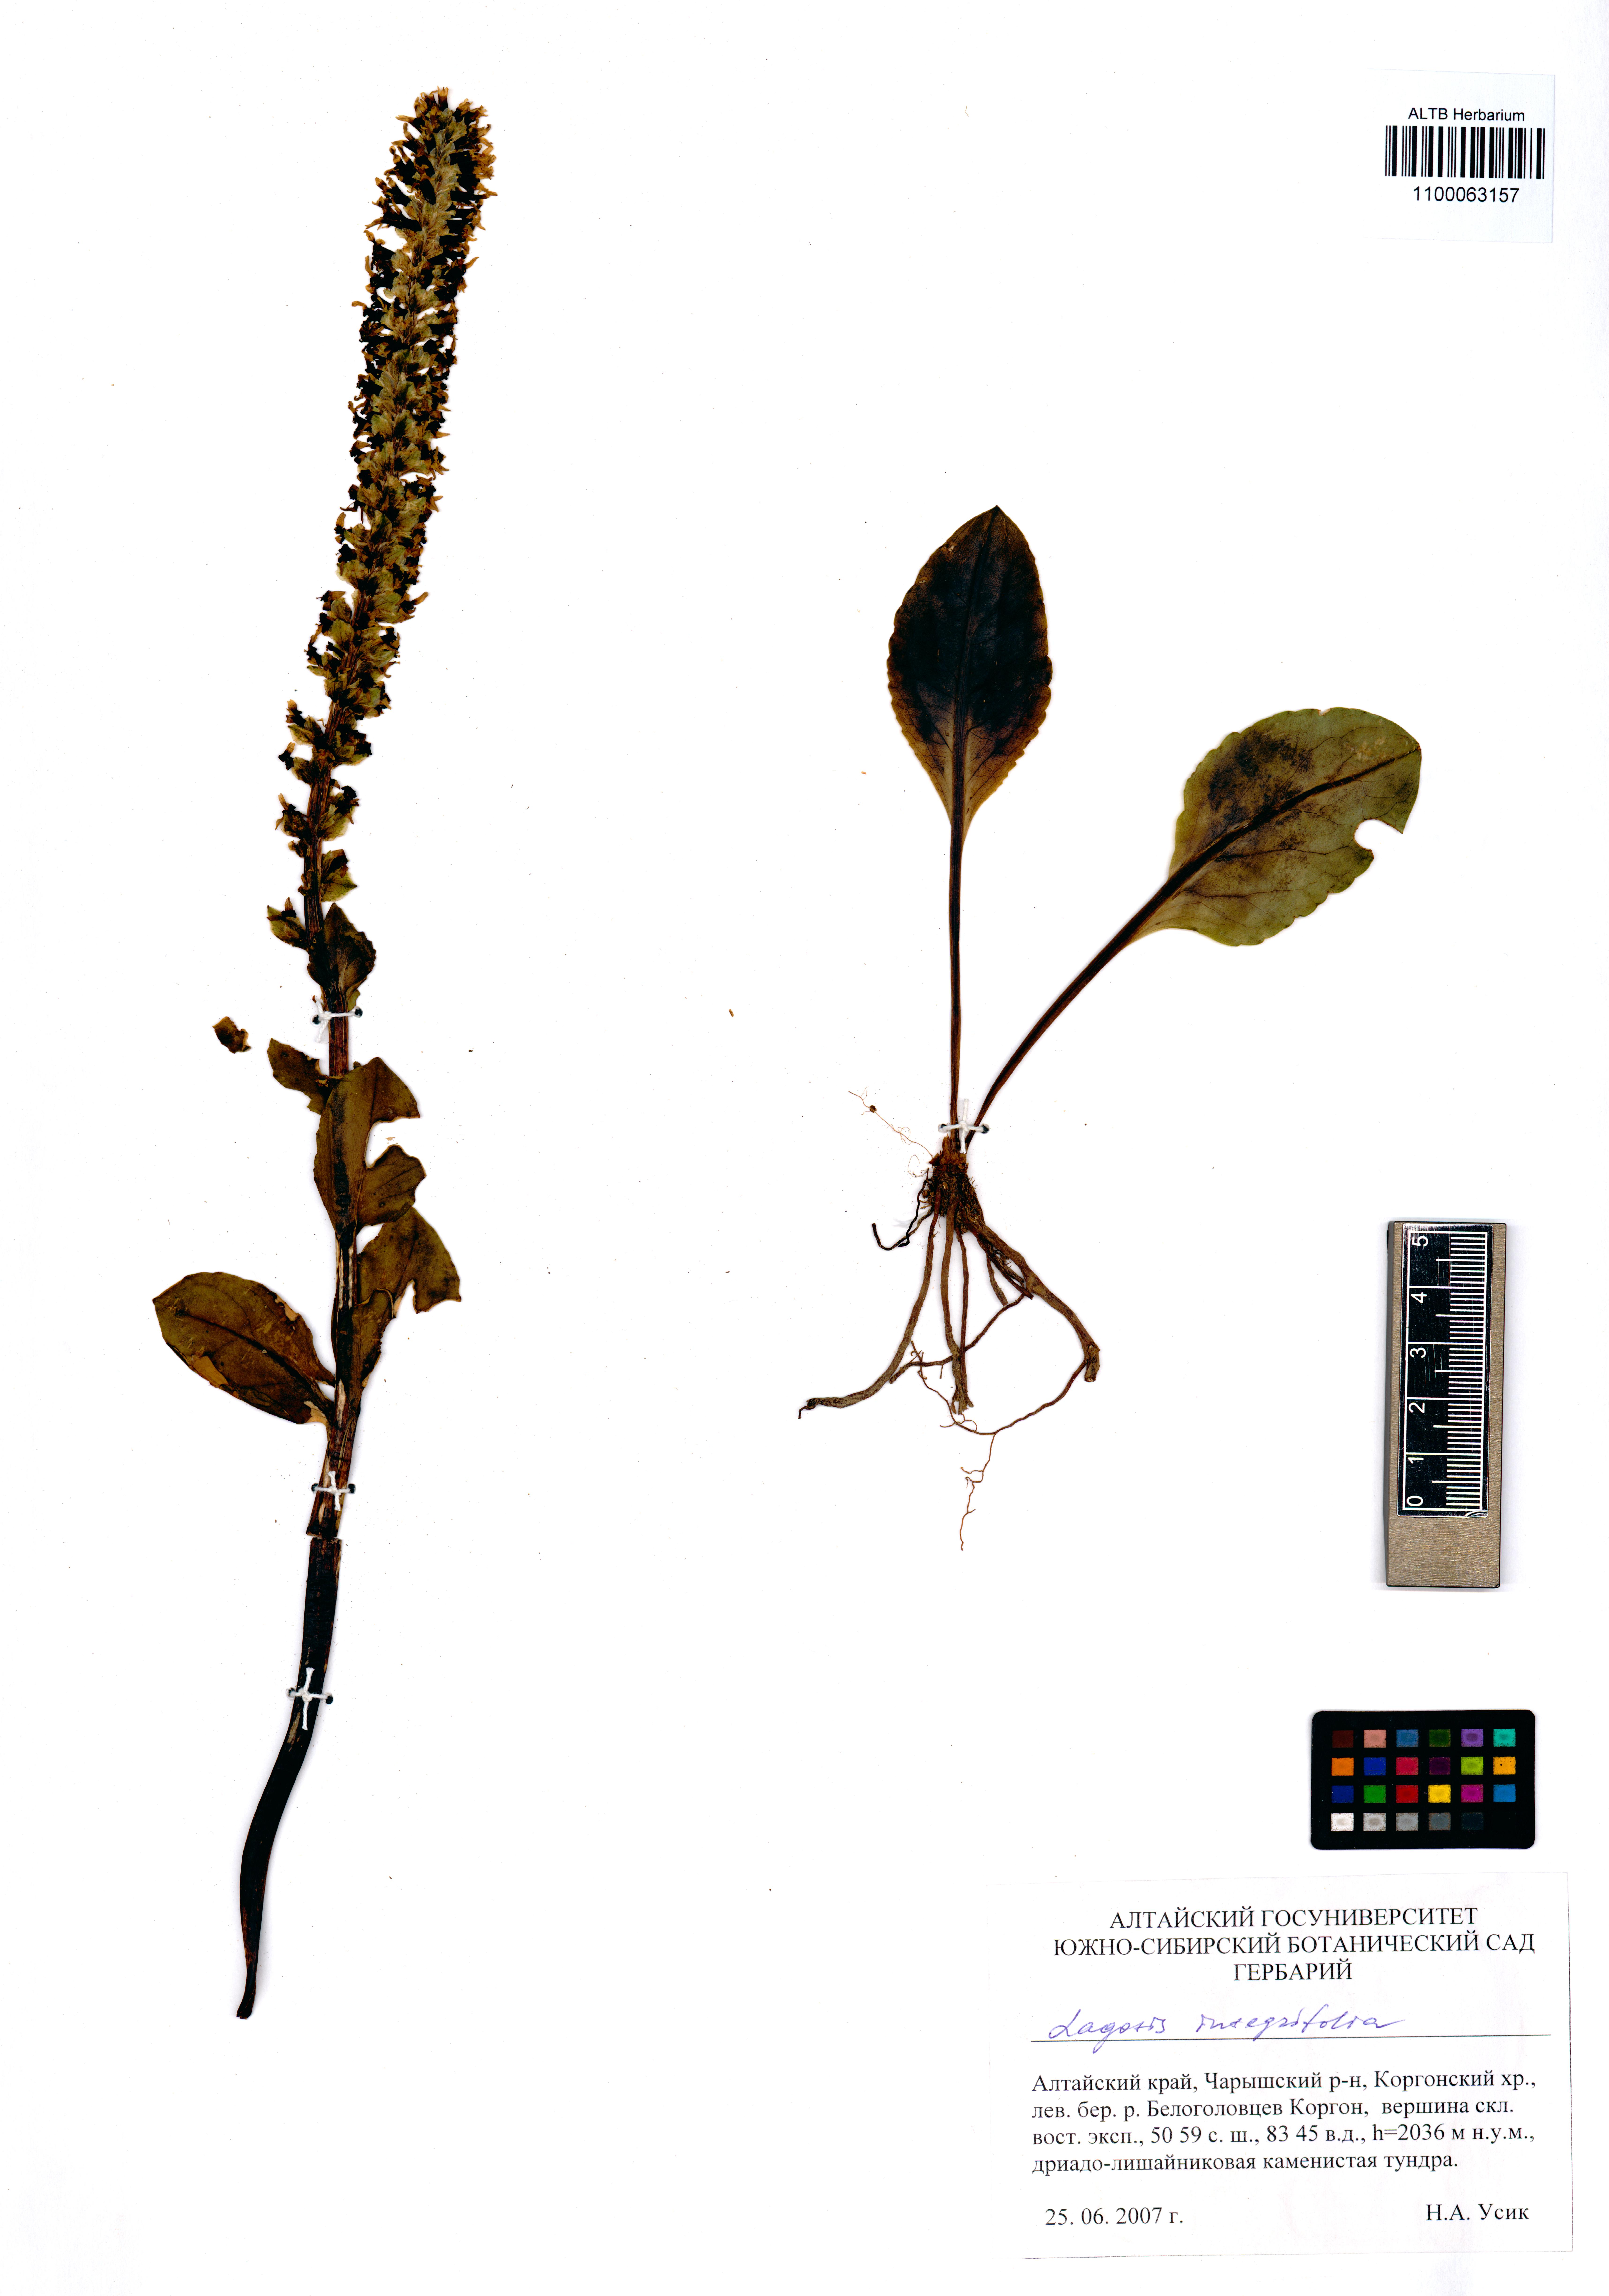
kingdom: Plantae
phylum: Tracheophyta
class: Magnoliopsida
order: Lamiales
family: Plantaginaceae
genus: Lagotis
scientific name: Lagotis integrifolia
